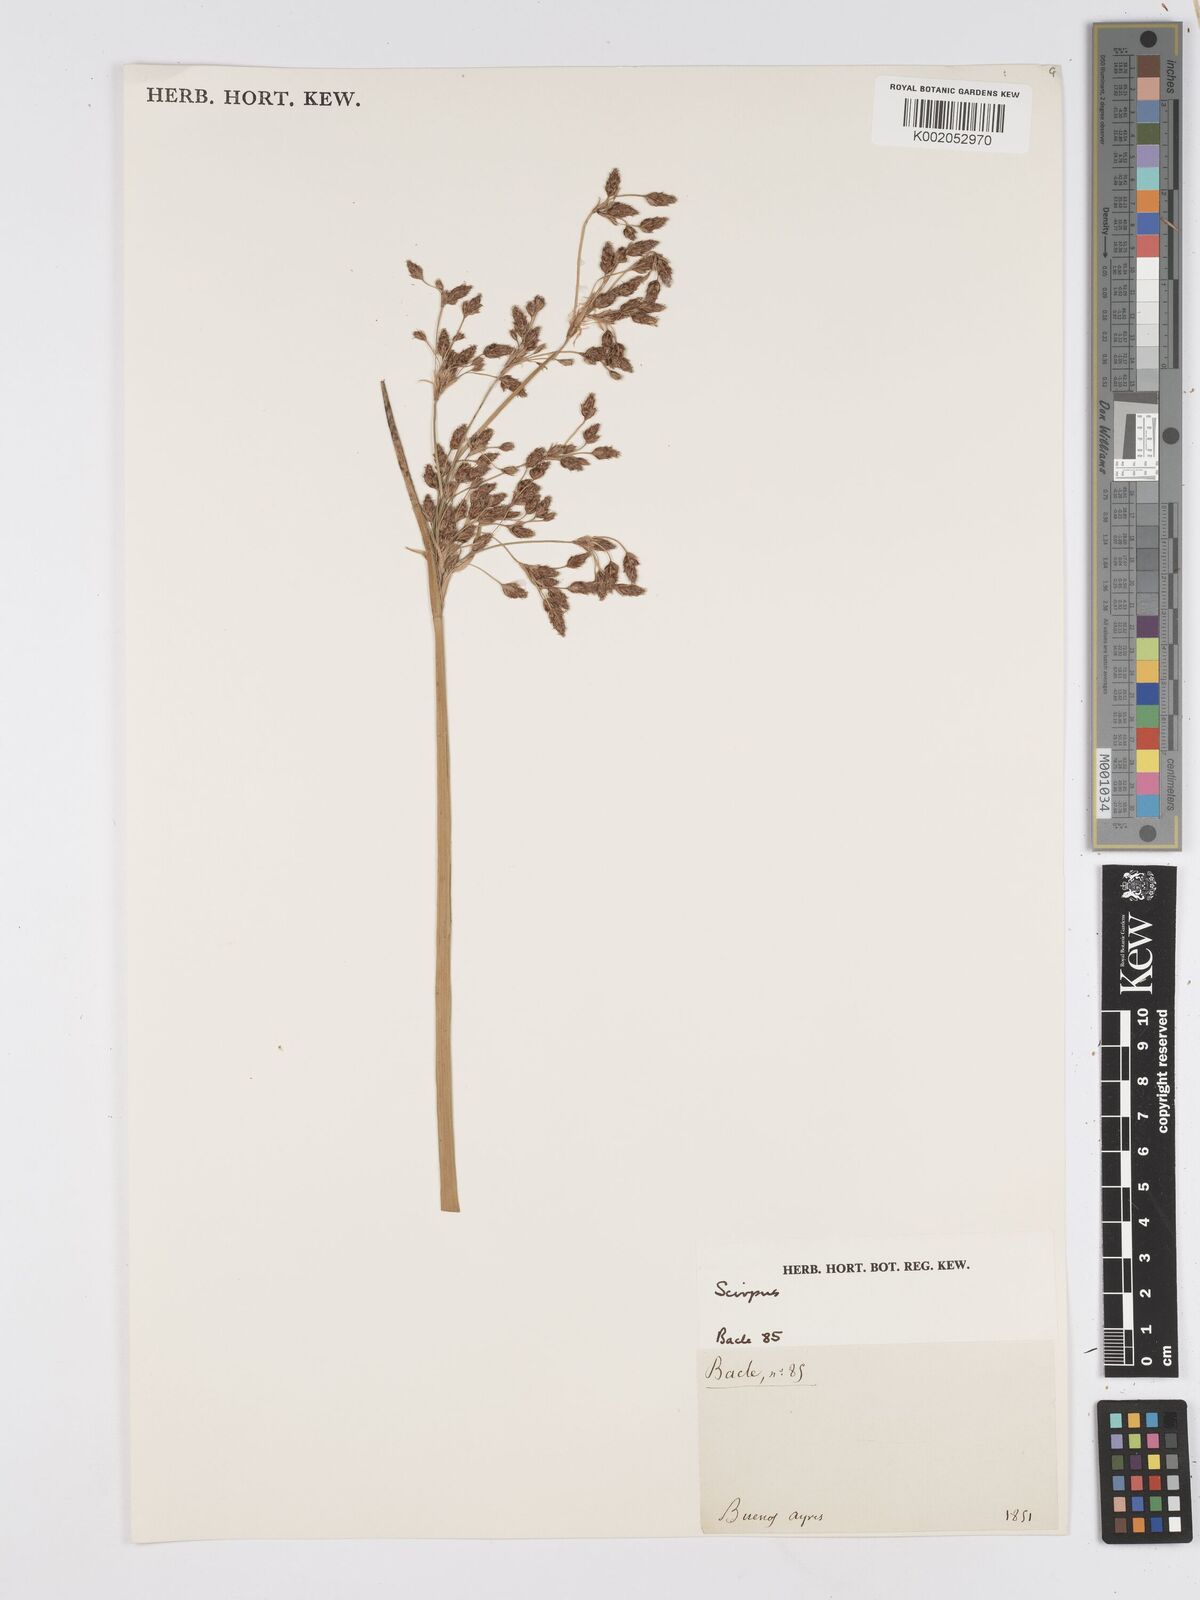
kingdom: Plantae
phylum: Tracheophyta
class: Liliopsida
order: Poales
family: Cyperaceae
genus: Scirpus
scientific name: Scirpus
